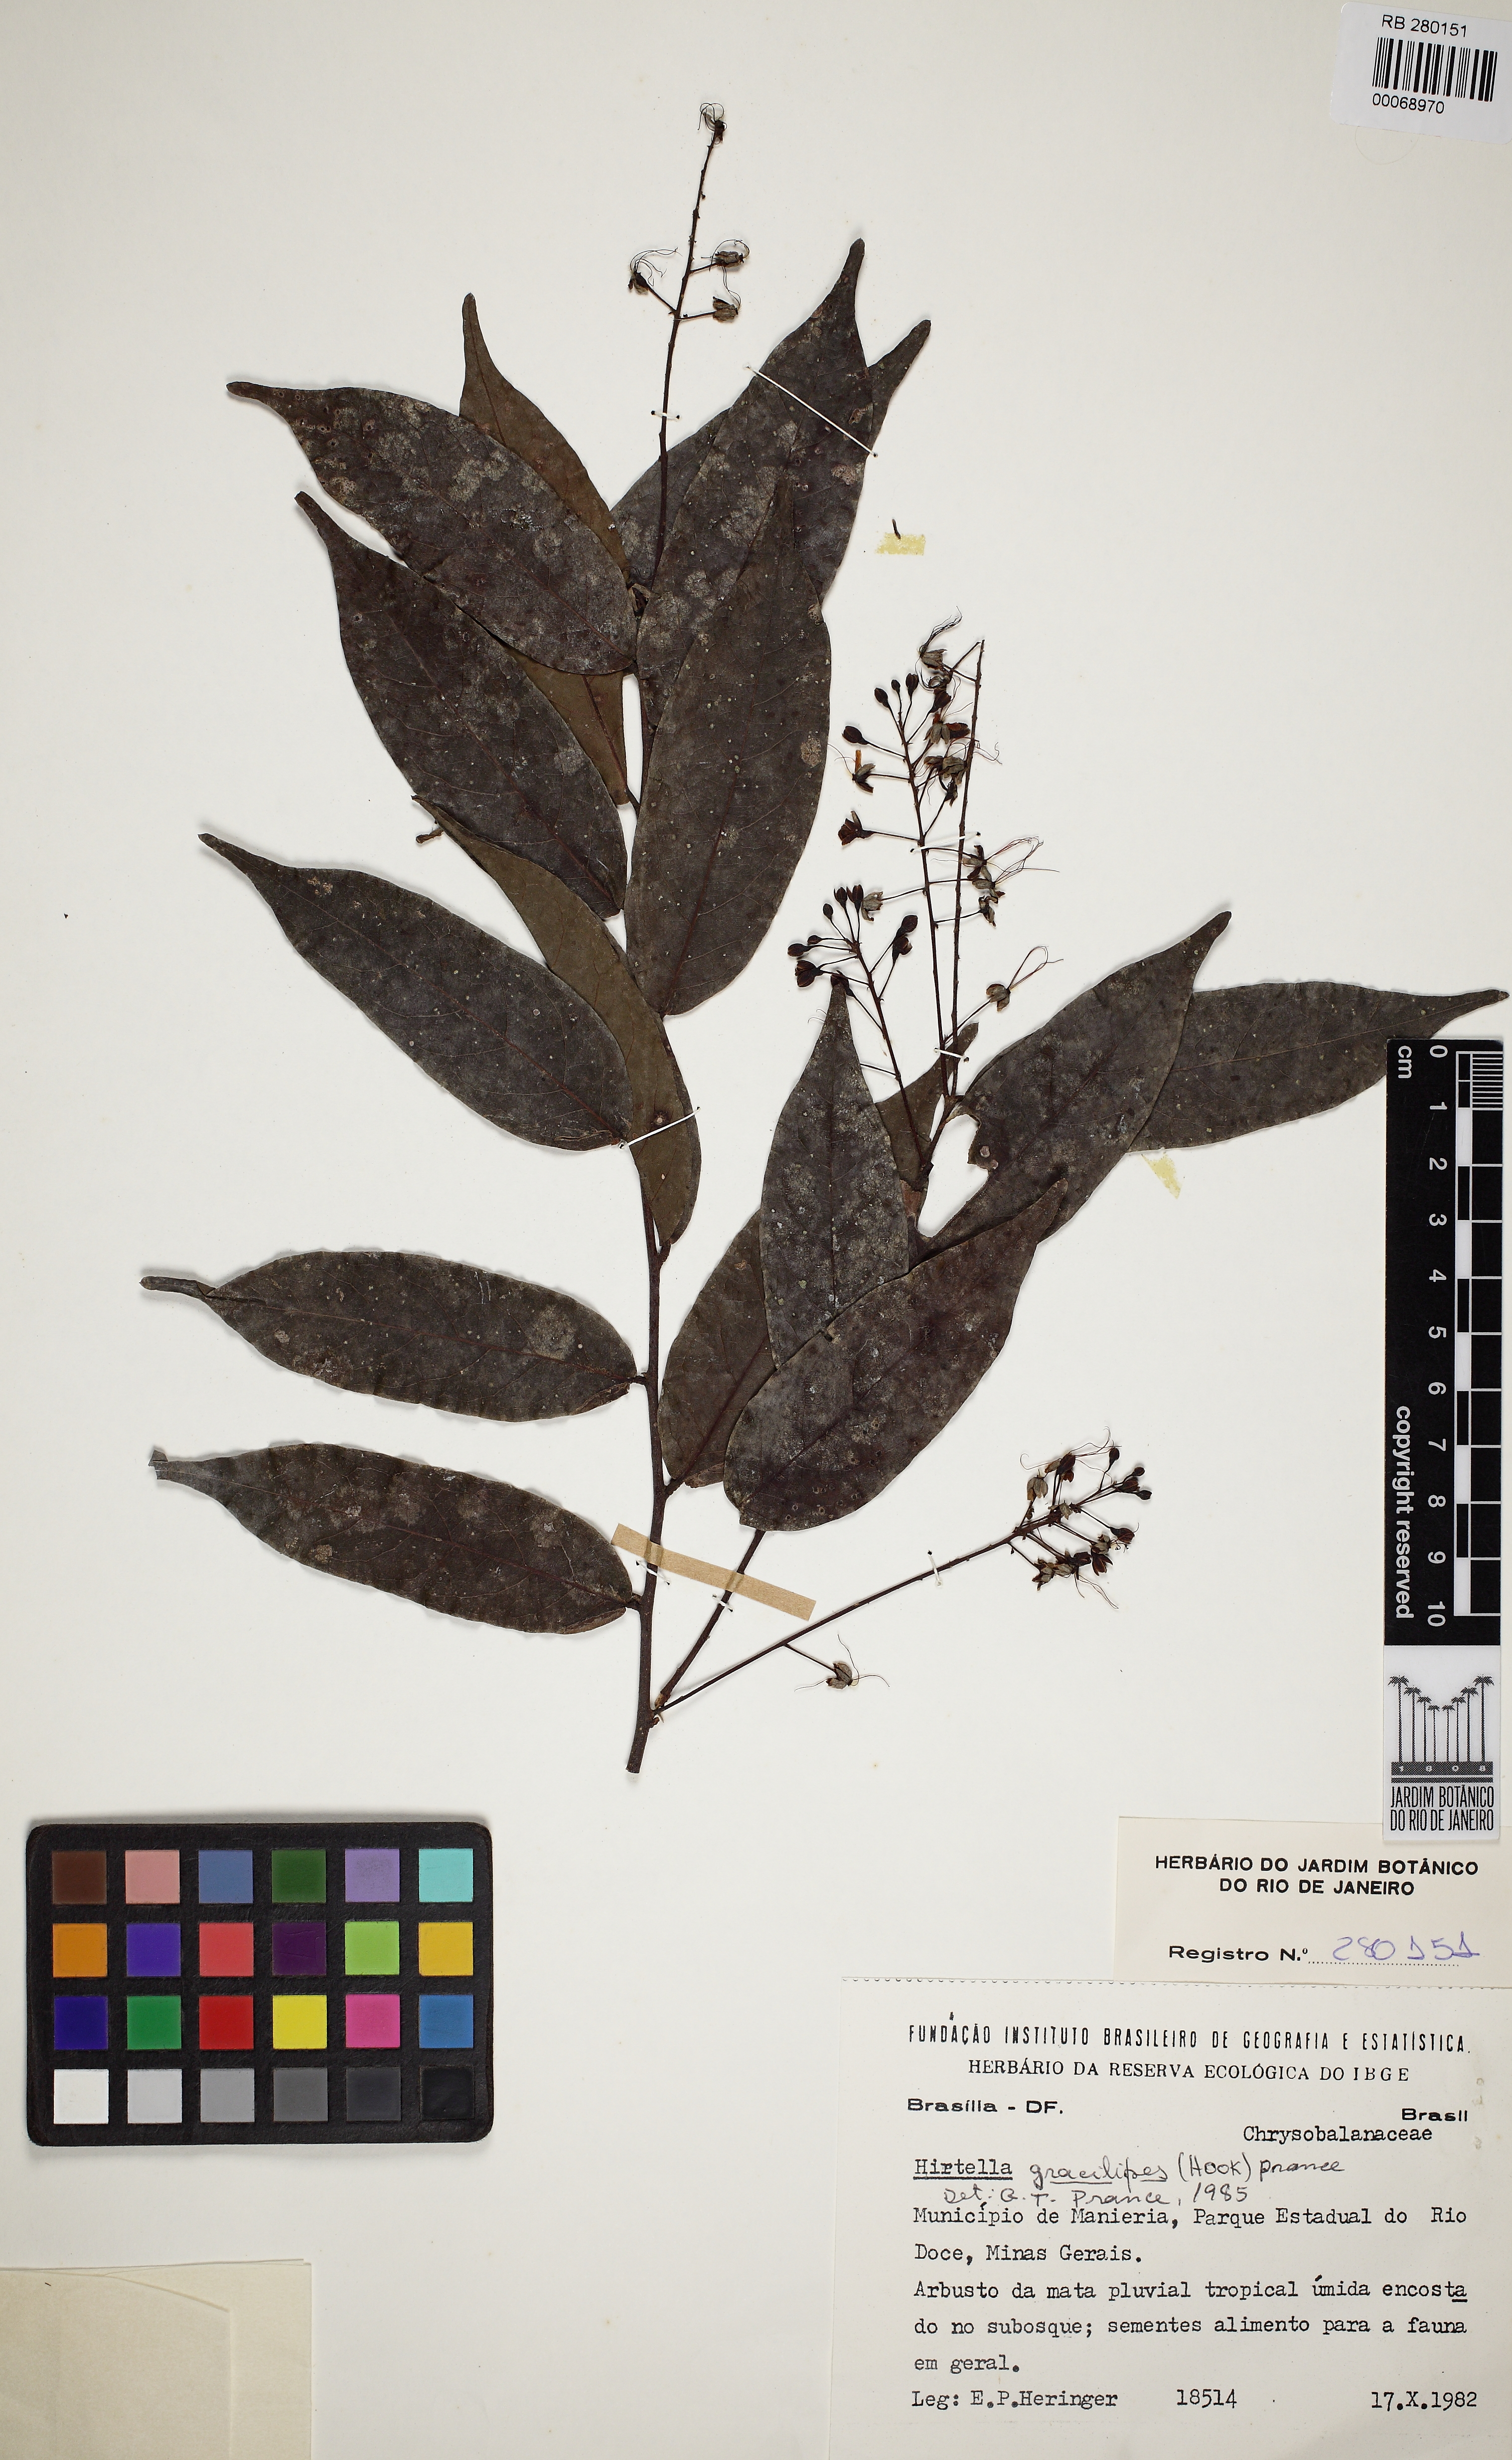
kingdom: Plantae
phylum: Tracheophyta
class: Magnoliopsida
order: Malpighiales
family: Chrysobalanaceae
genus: Hirtella
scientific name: Hirtella gracilipes
